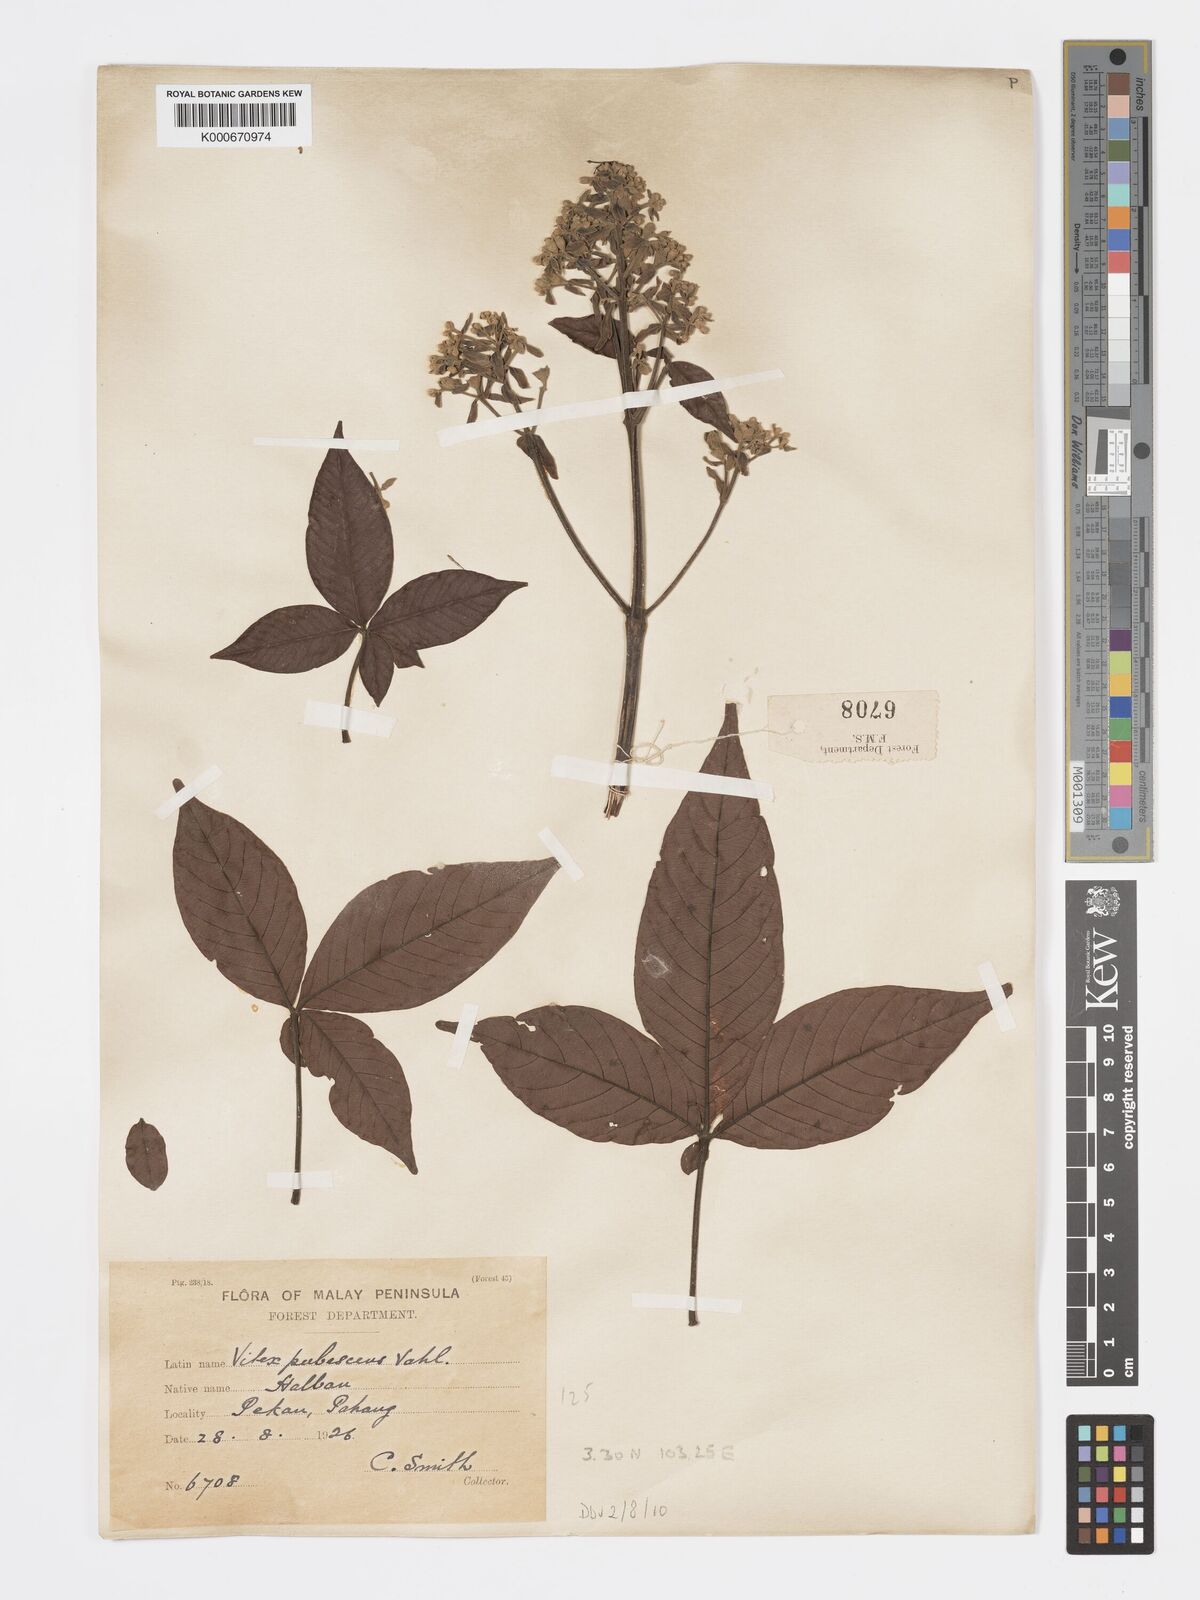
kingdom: Plantae
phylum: Tracheophyta
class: Magnoliopsida
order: Lamiales
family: Lamiaceae
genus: Vitex
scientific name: Vitex pinnata
